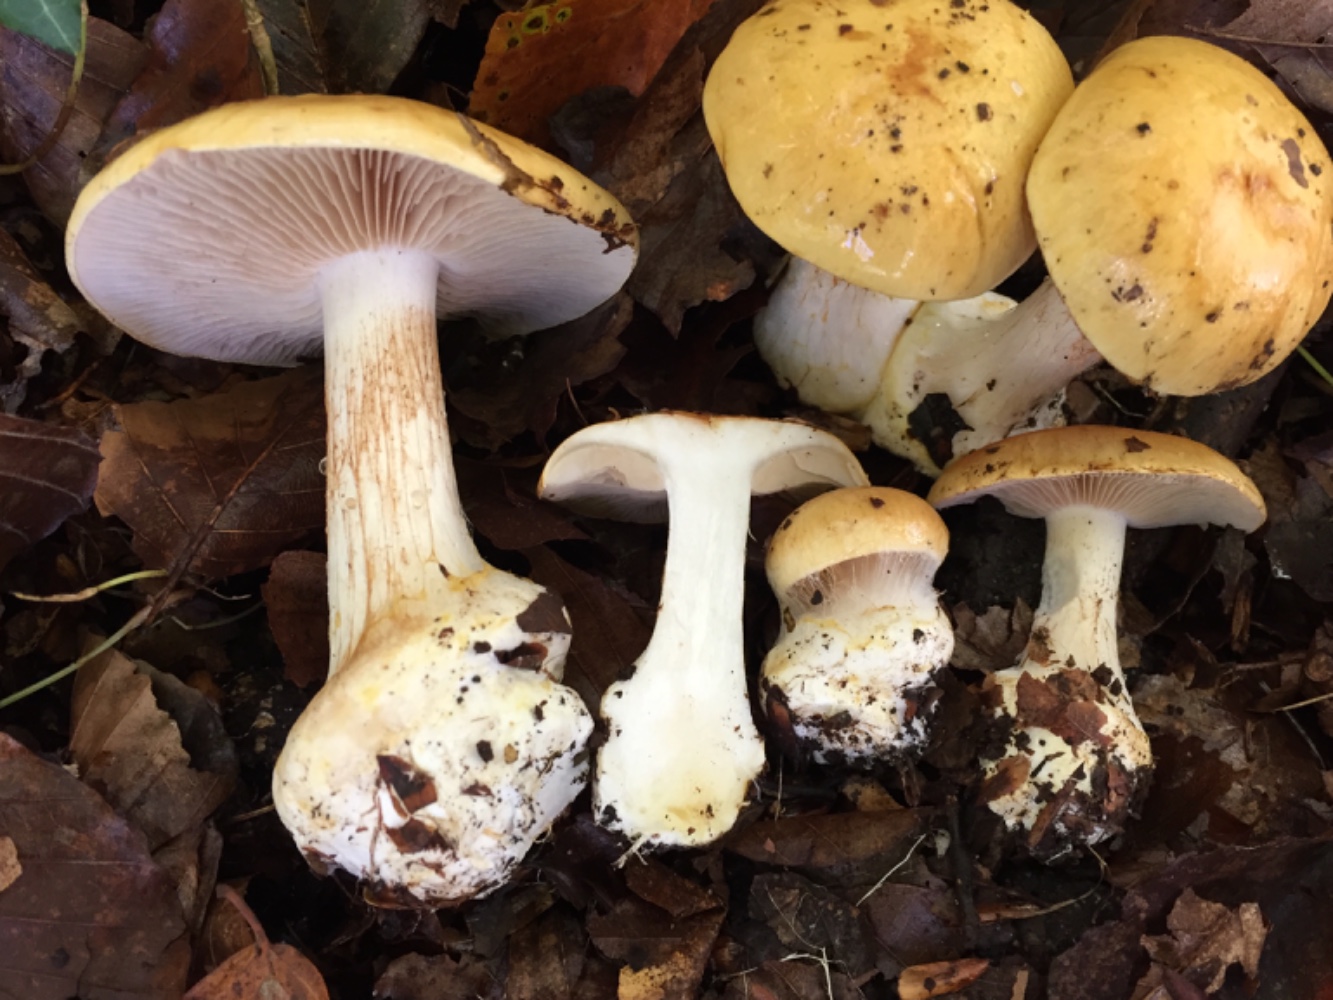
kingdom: Fungi
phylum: Basidiomycota
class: Agaricomycetes
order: Agaricales
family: Cortinariaceae
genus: Phlegmacium
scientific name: Phlegmacium rhizophorum
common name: finkornet slørhat
